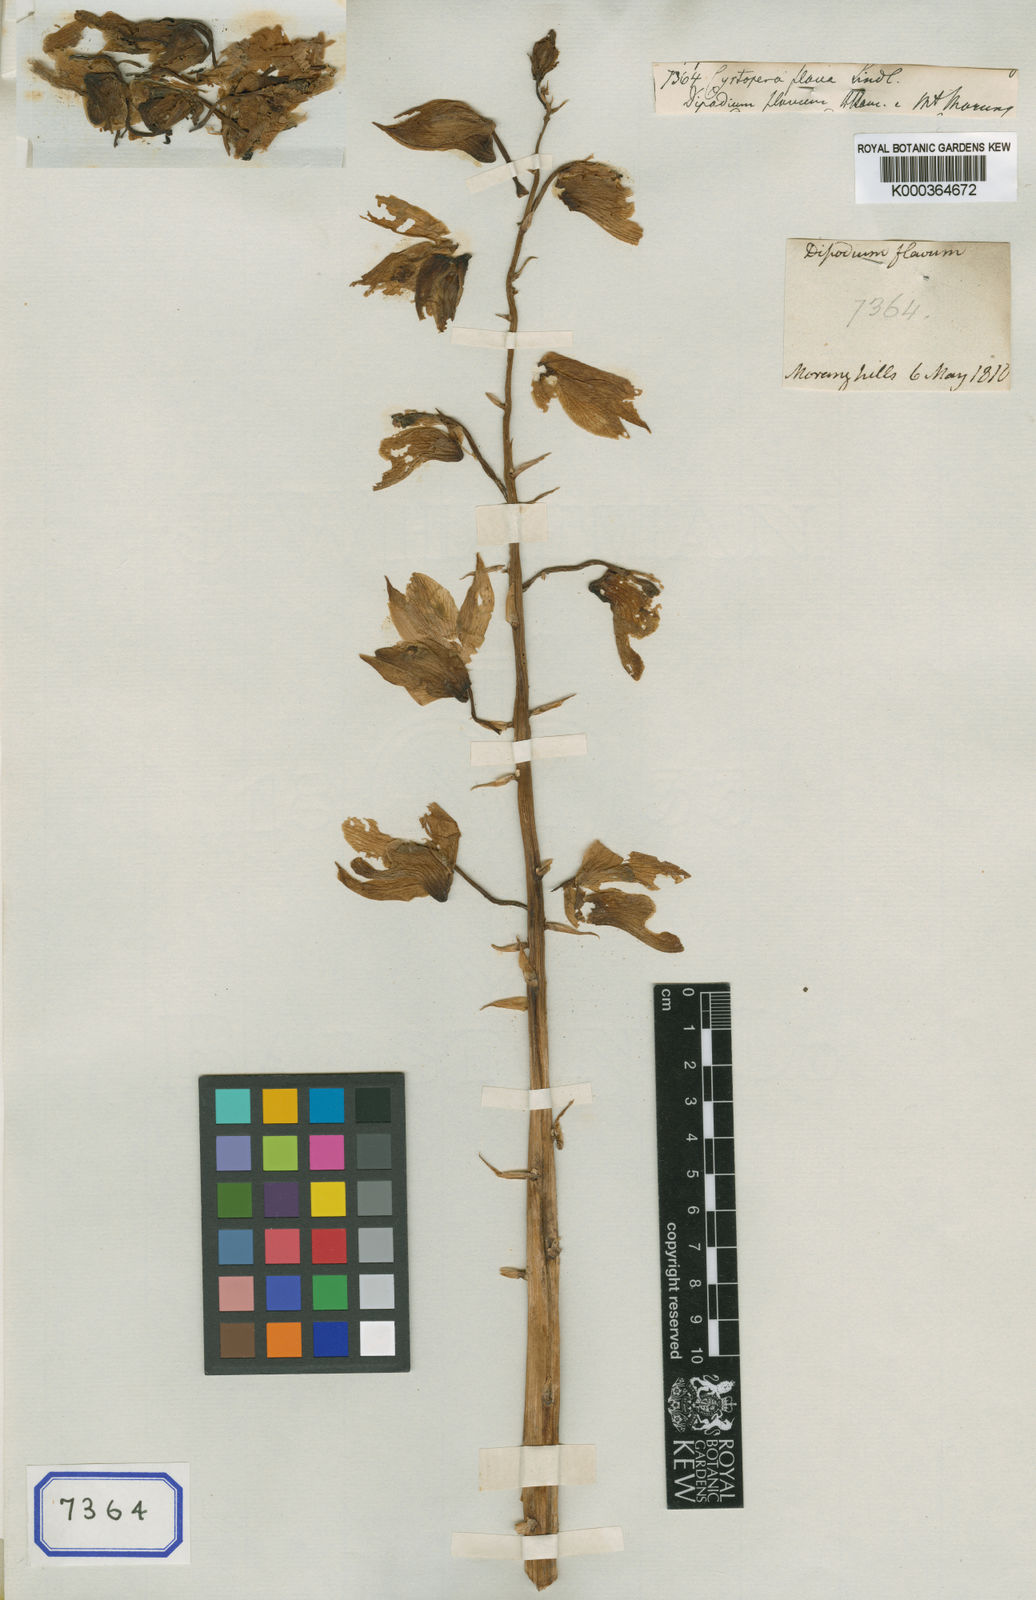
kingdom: Plantae
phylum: Tracheophyta
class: Liliopsida
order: Asparagales
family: Orchidaceae
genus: Eulophia
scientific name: Eulophia flava
